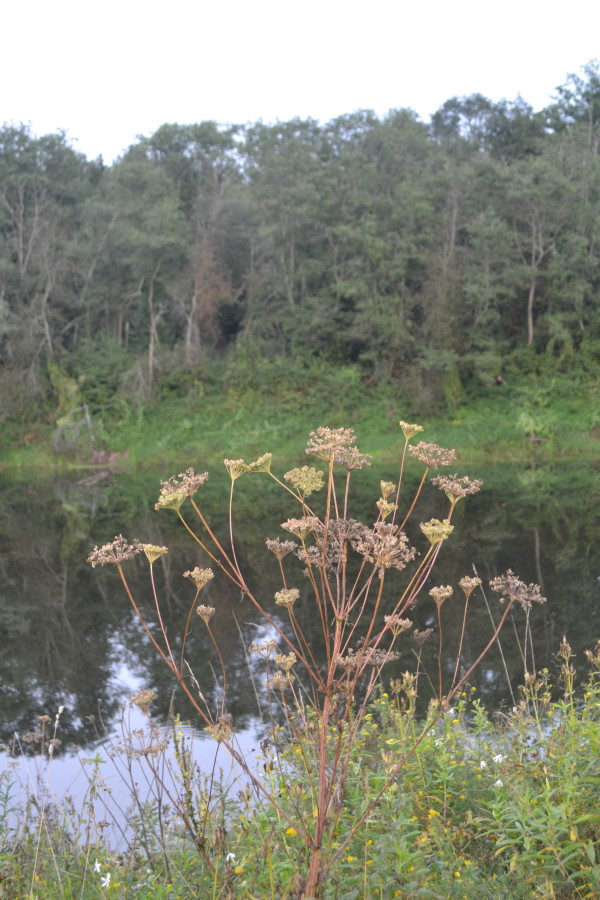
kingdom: Plantae
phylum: Tracheophyta
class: Magnoliopsida
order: Apiales
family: Apiaceae
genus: Seseli
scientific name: Seseli libanotis
